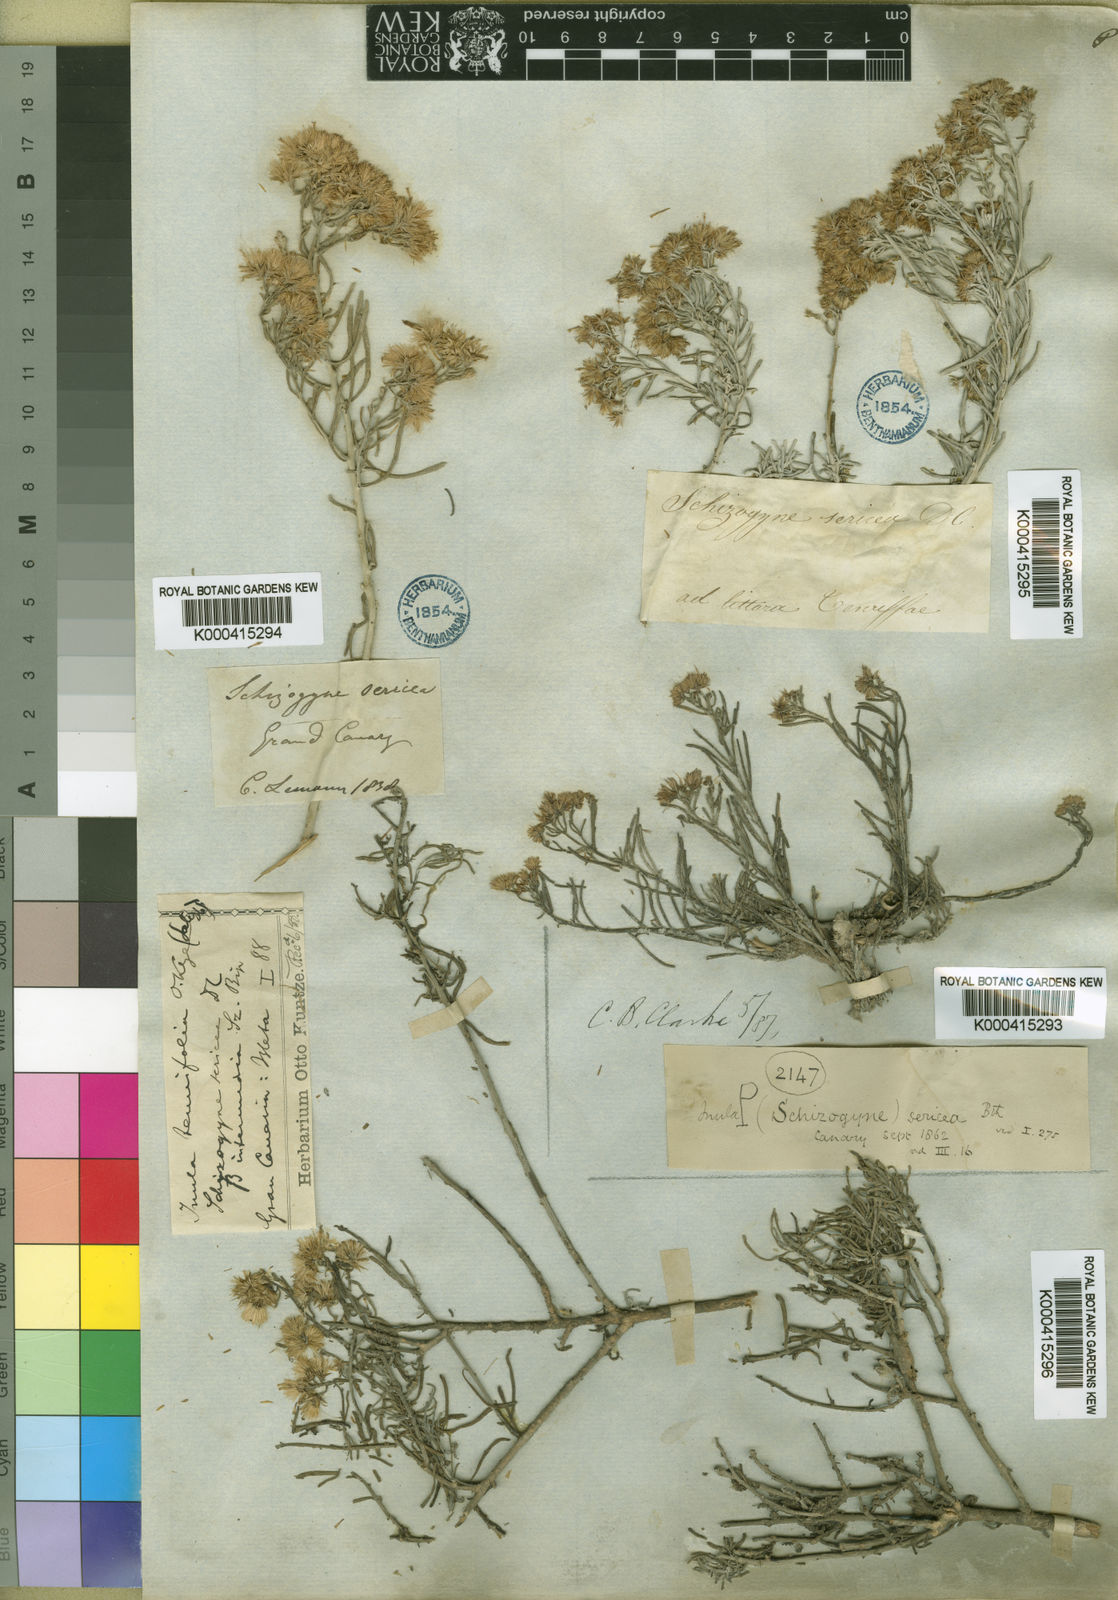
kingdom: Plantae
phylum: Tracheophyta
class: Magnoliopsida
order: Asterales
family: Asteraceae
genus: Schizogyne
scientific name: Schizogyne sericea
